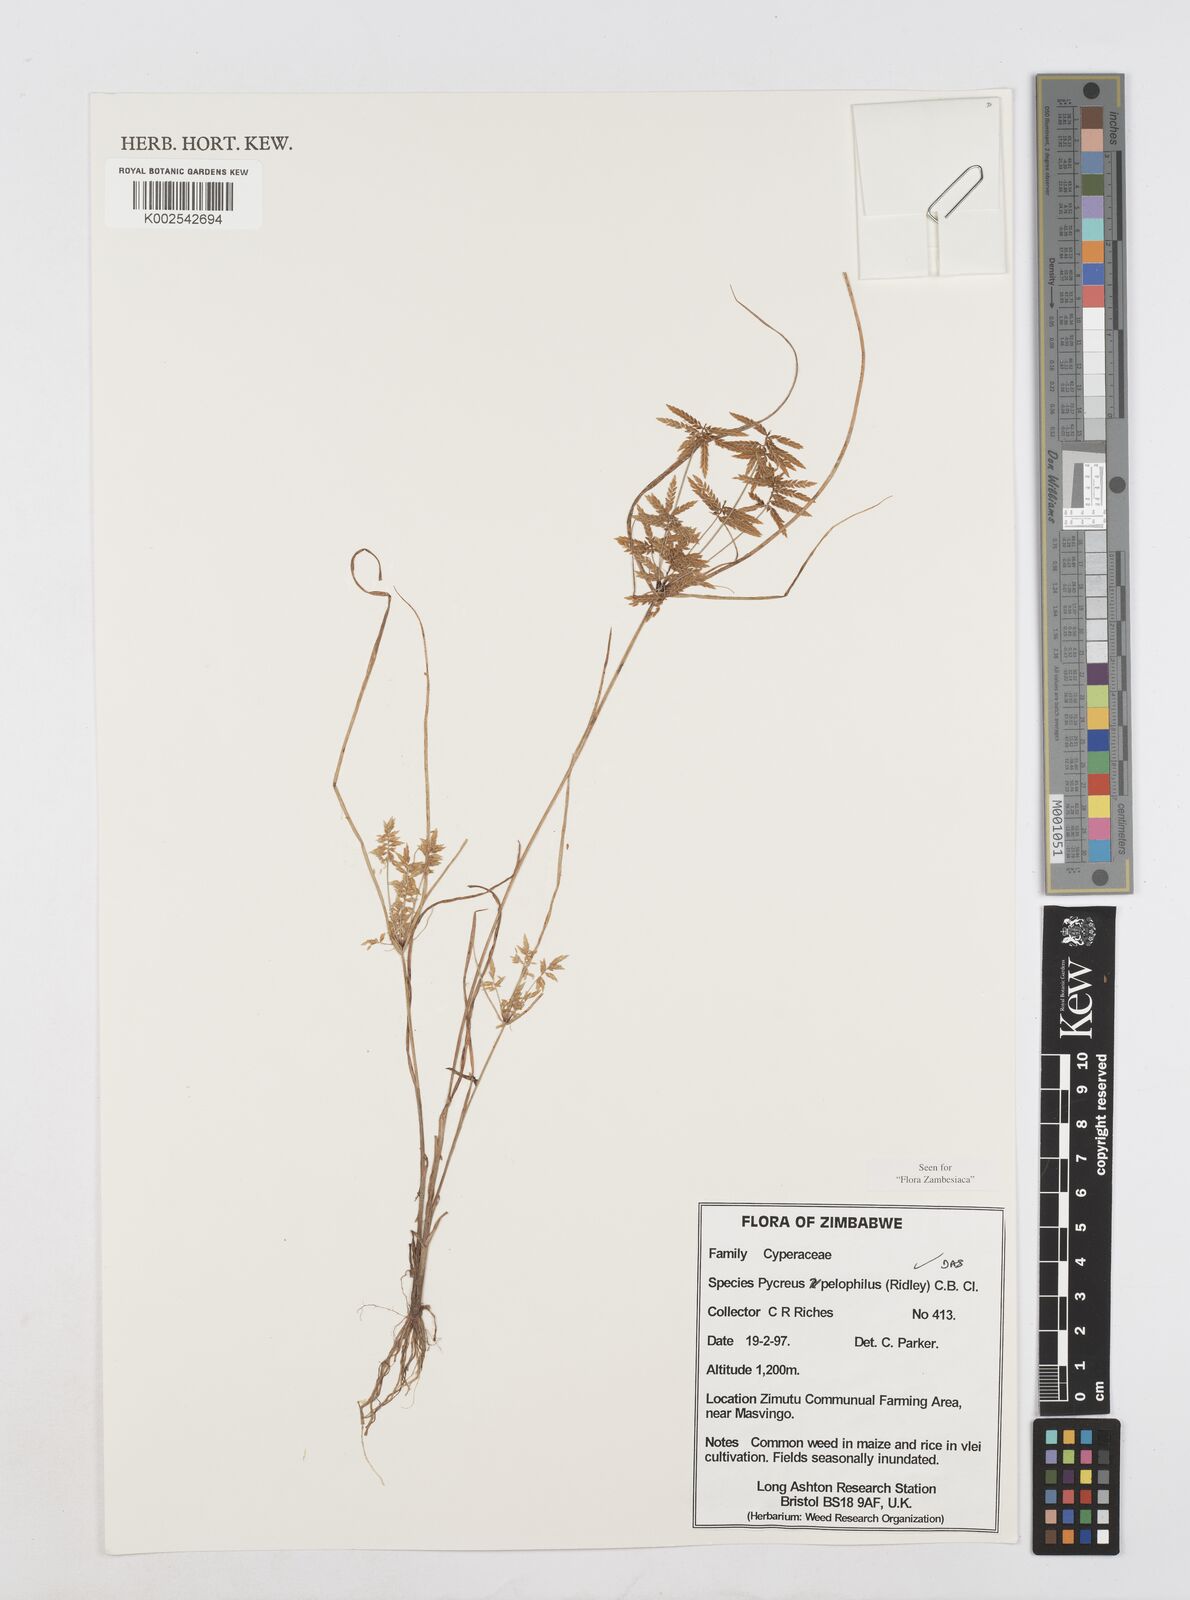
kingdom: Plantae
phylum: Tracheophyta
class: Liliopsida
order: Poales
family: Cyperaceae
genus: Cyperus
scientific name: Cyperus pelophilus
